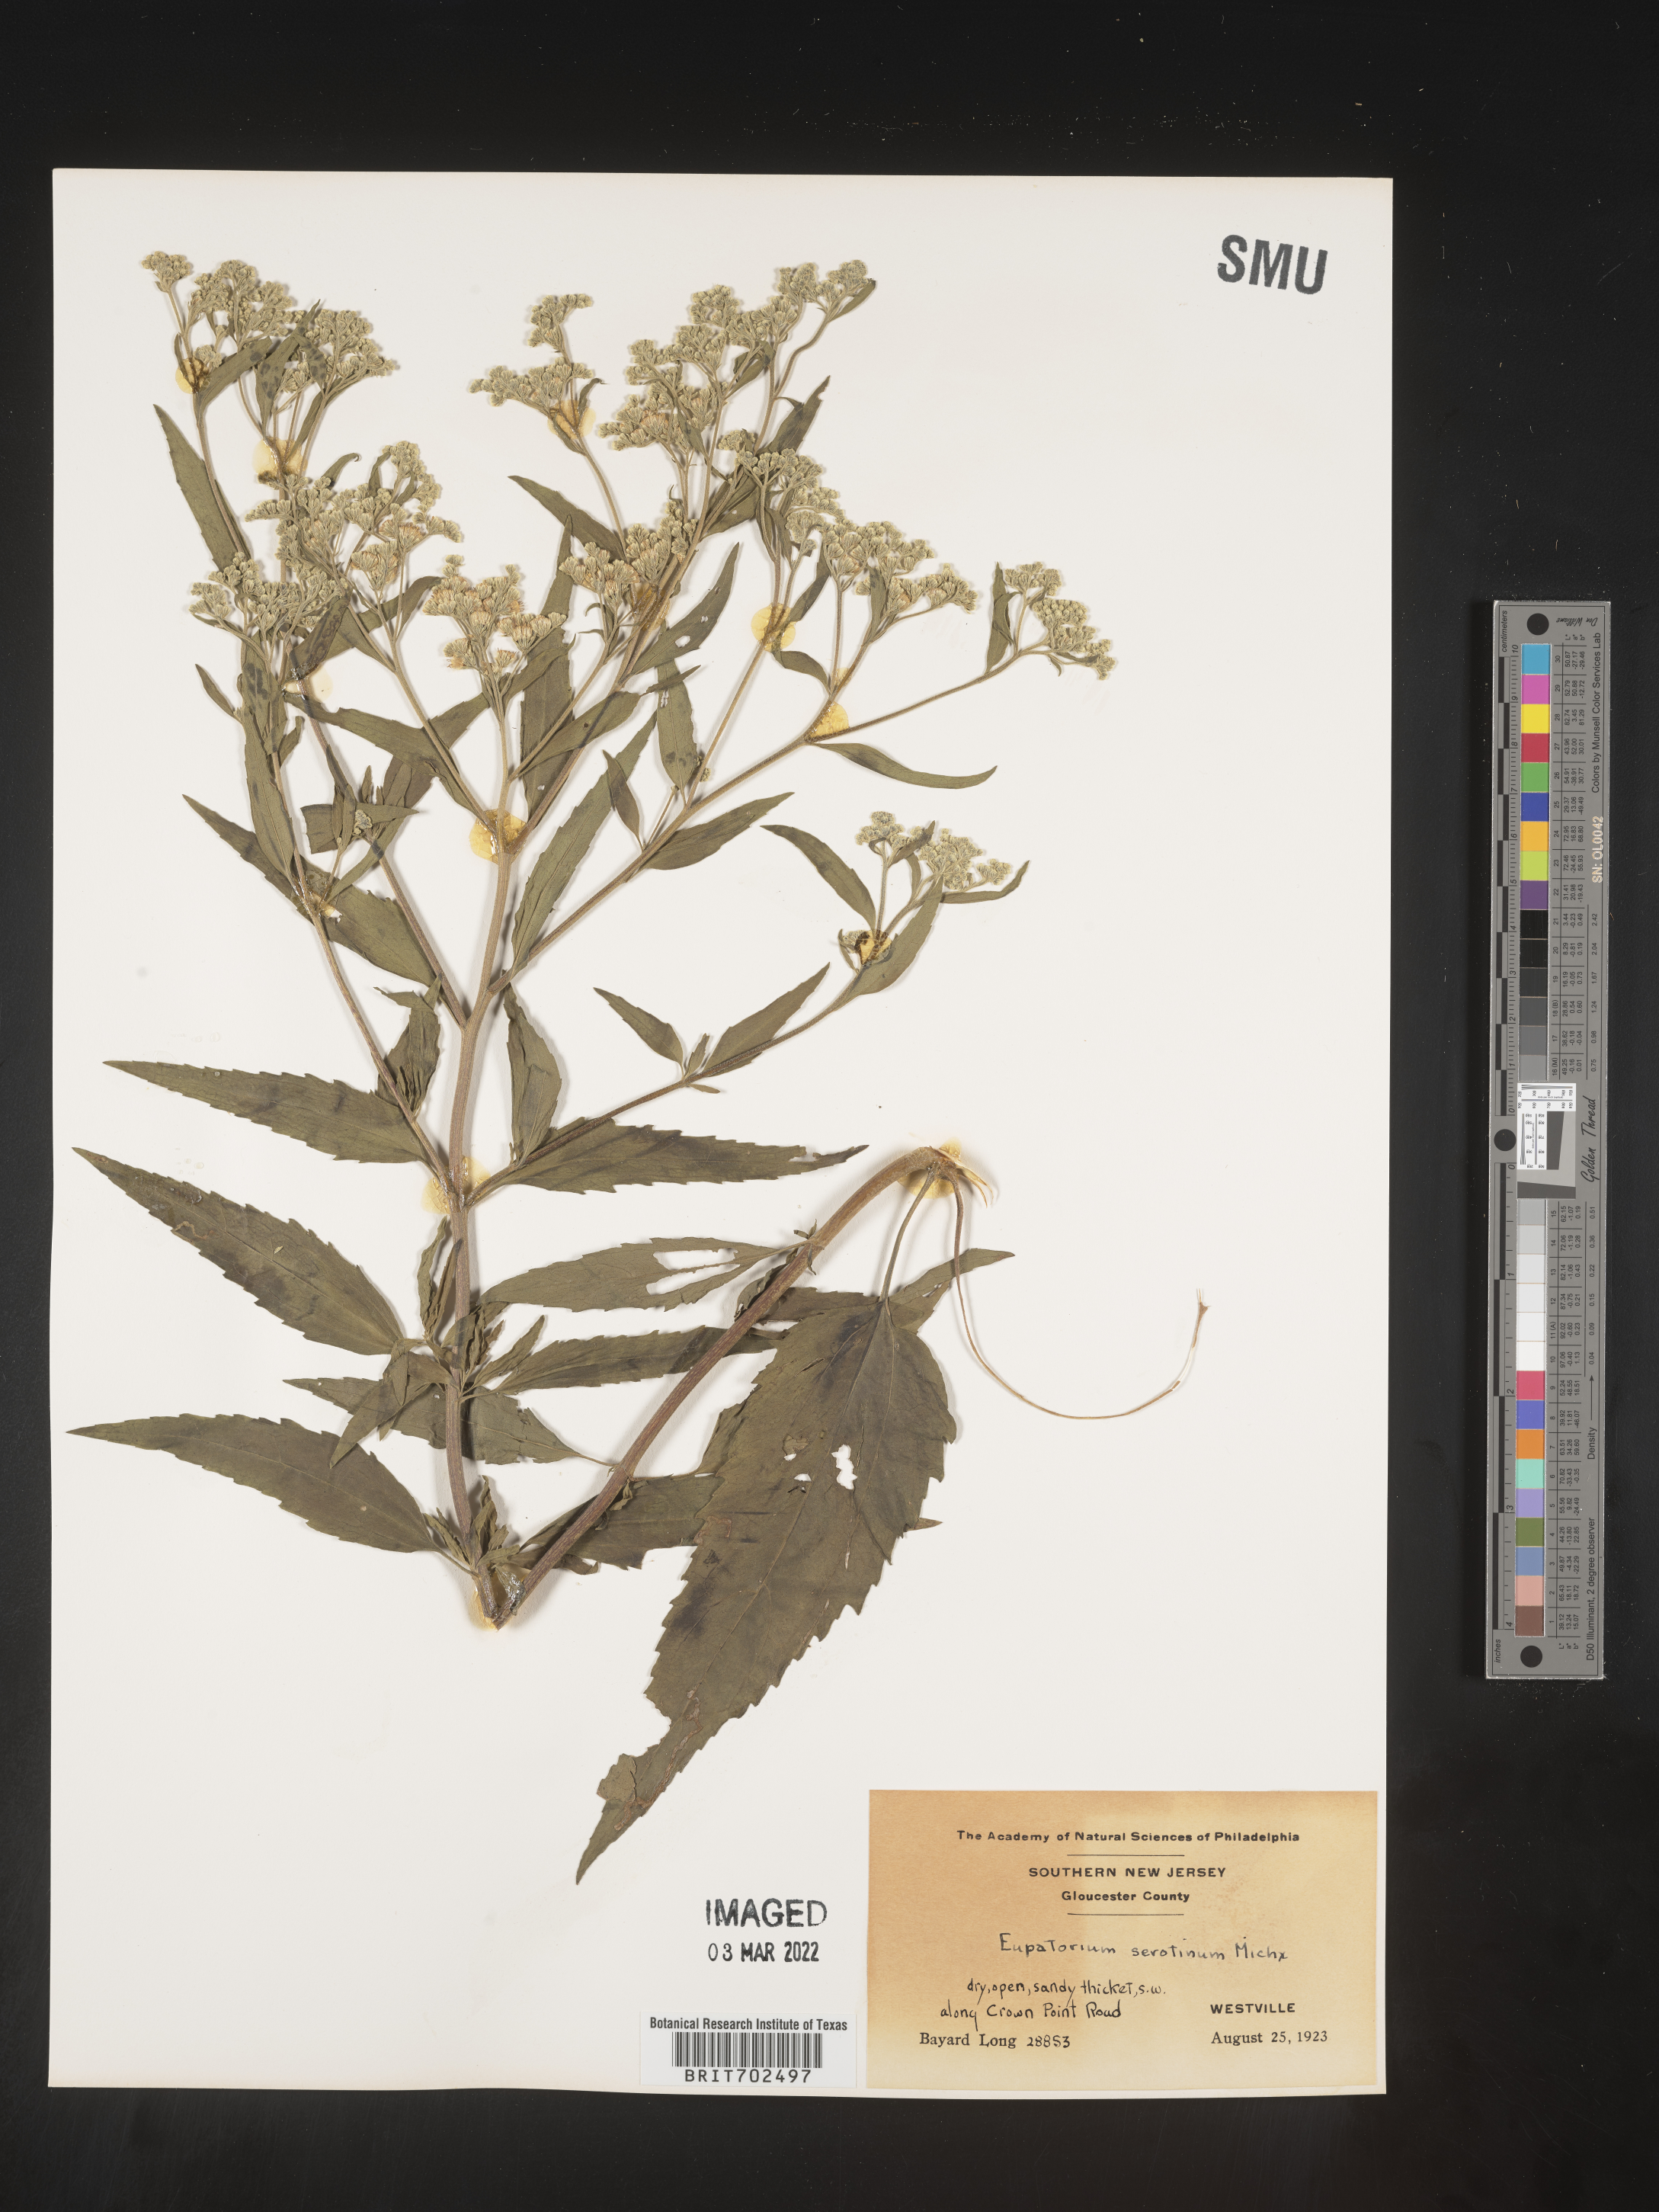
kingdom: Plantae
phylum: Tracheophyta
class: Magnoliopsida
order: Asterales
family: Asteraceae
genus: Eupatorium
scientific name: Eupatorium serotinum
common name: Late boneset
